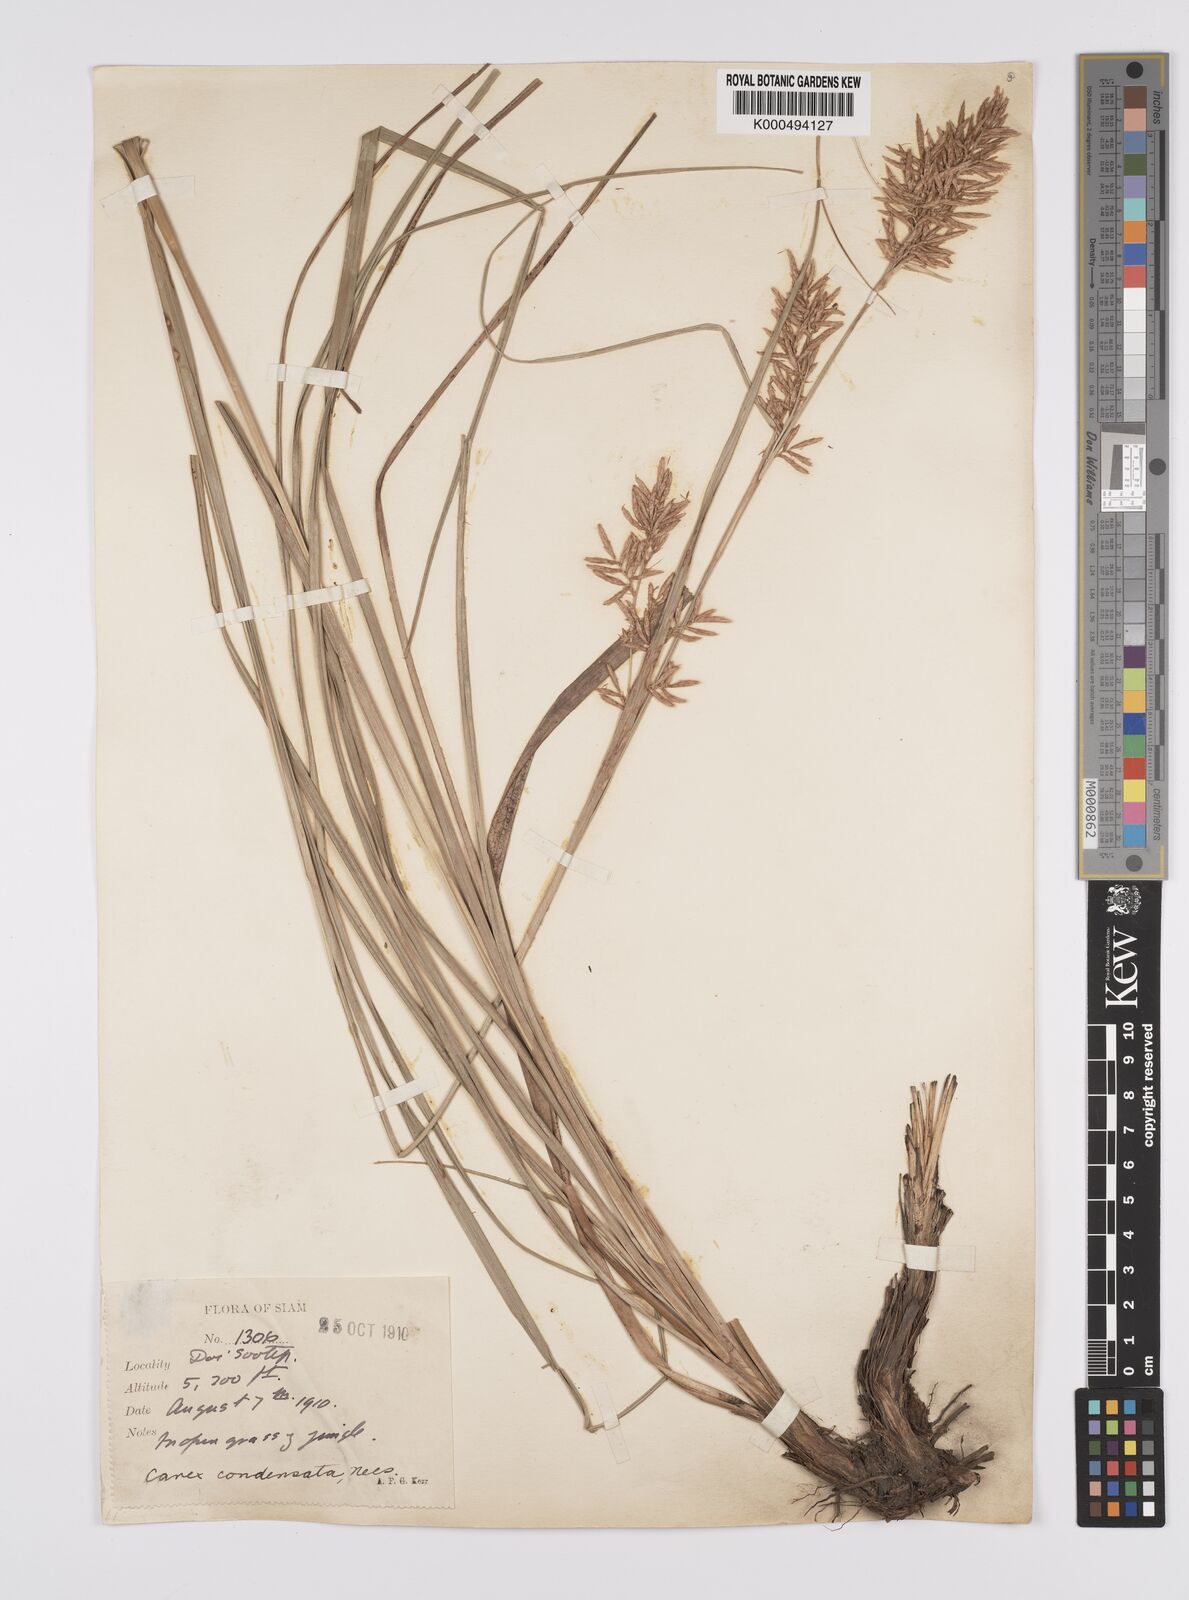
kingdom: Plantae
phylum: Tracheophyta
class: Liliopsida
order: Poales
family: Cyperaceae
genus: Carex
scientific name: Carex condensata
